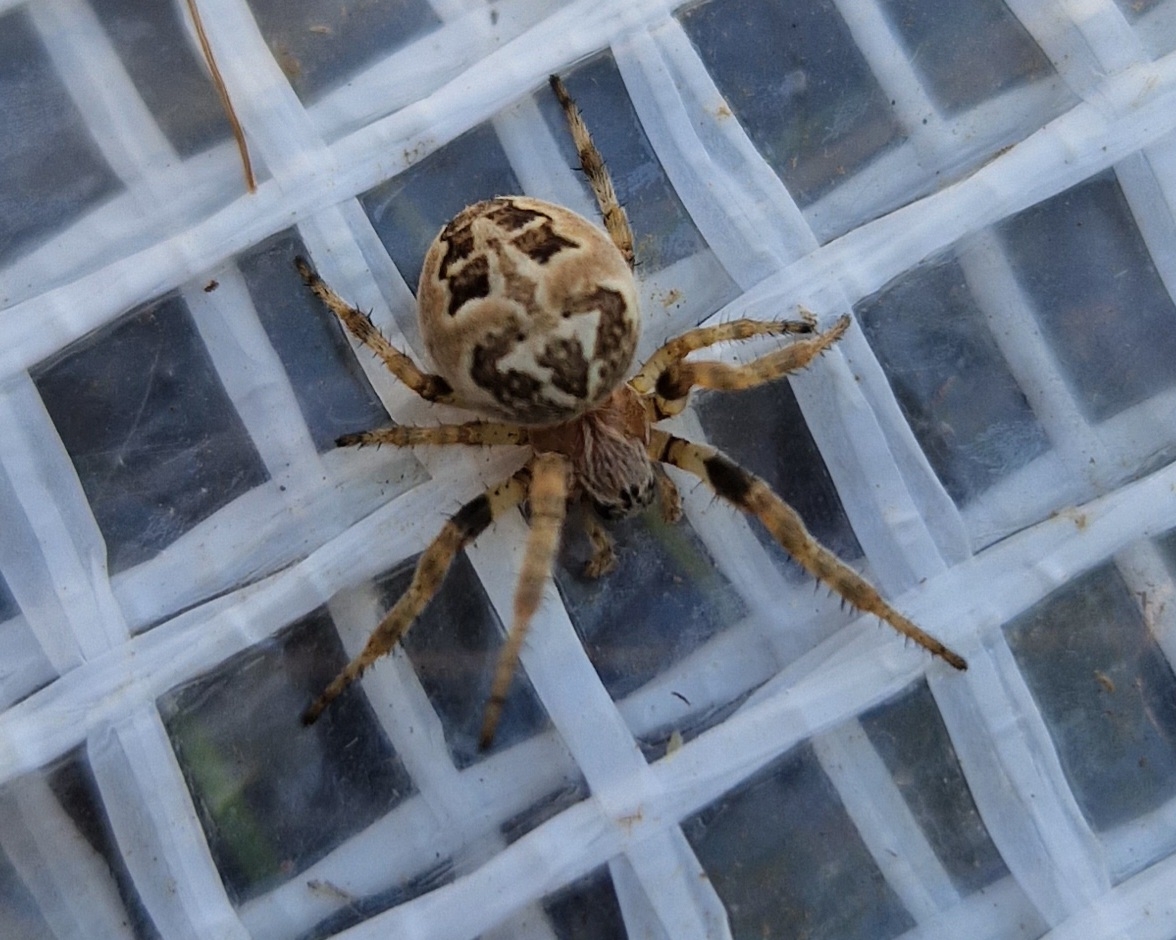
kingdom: Animalia
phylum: Arthropoda
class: Arachnida
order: Araneae
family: Araneidae
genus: Larinioides
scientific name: Larinioides cornutus
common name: Sivhjulspinder
